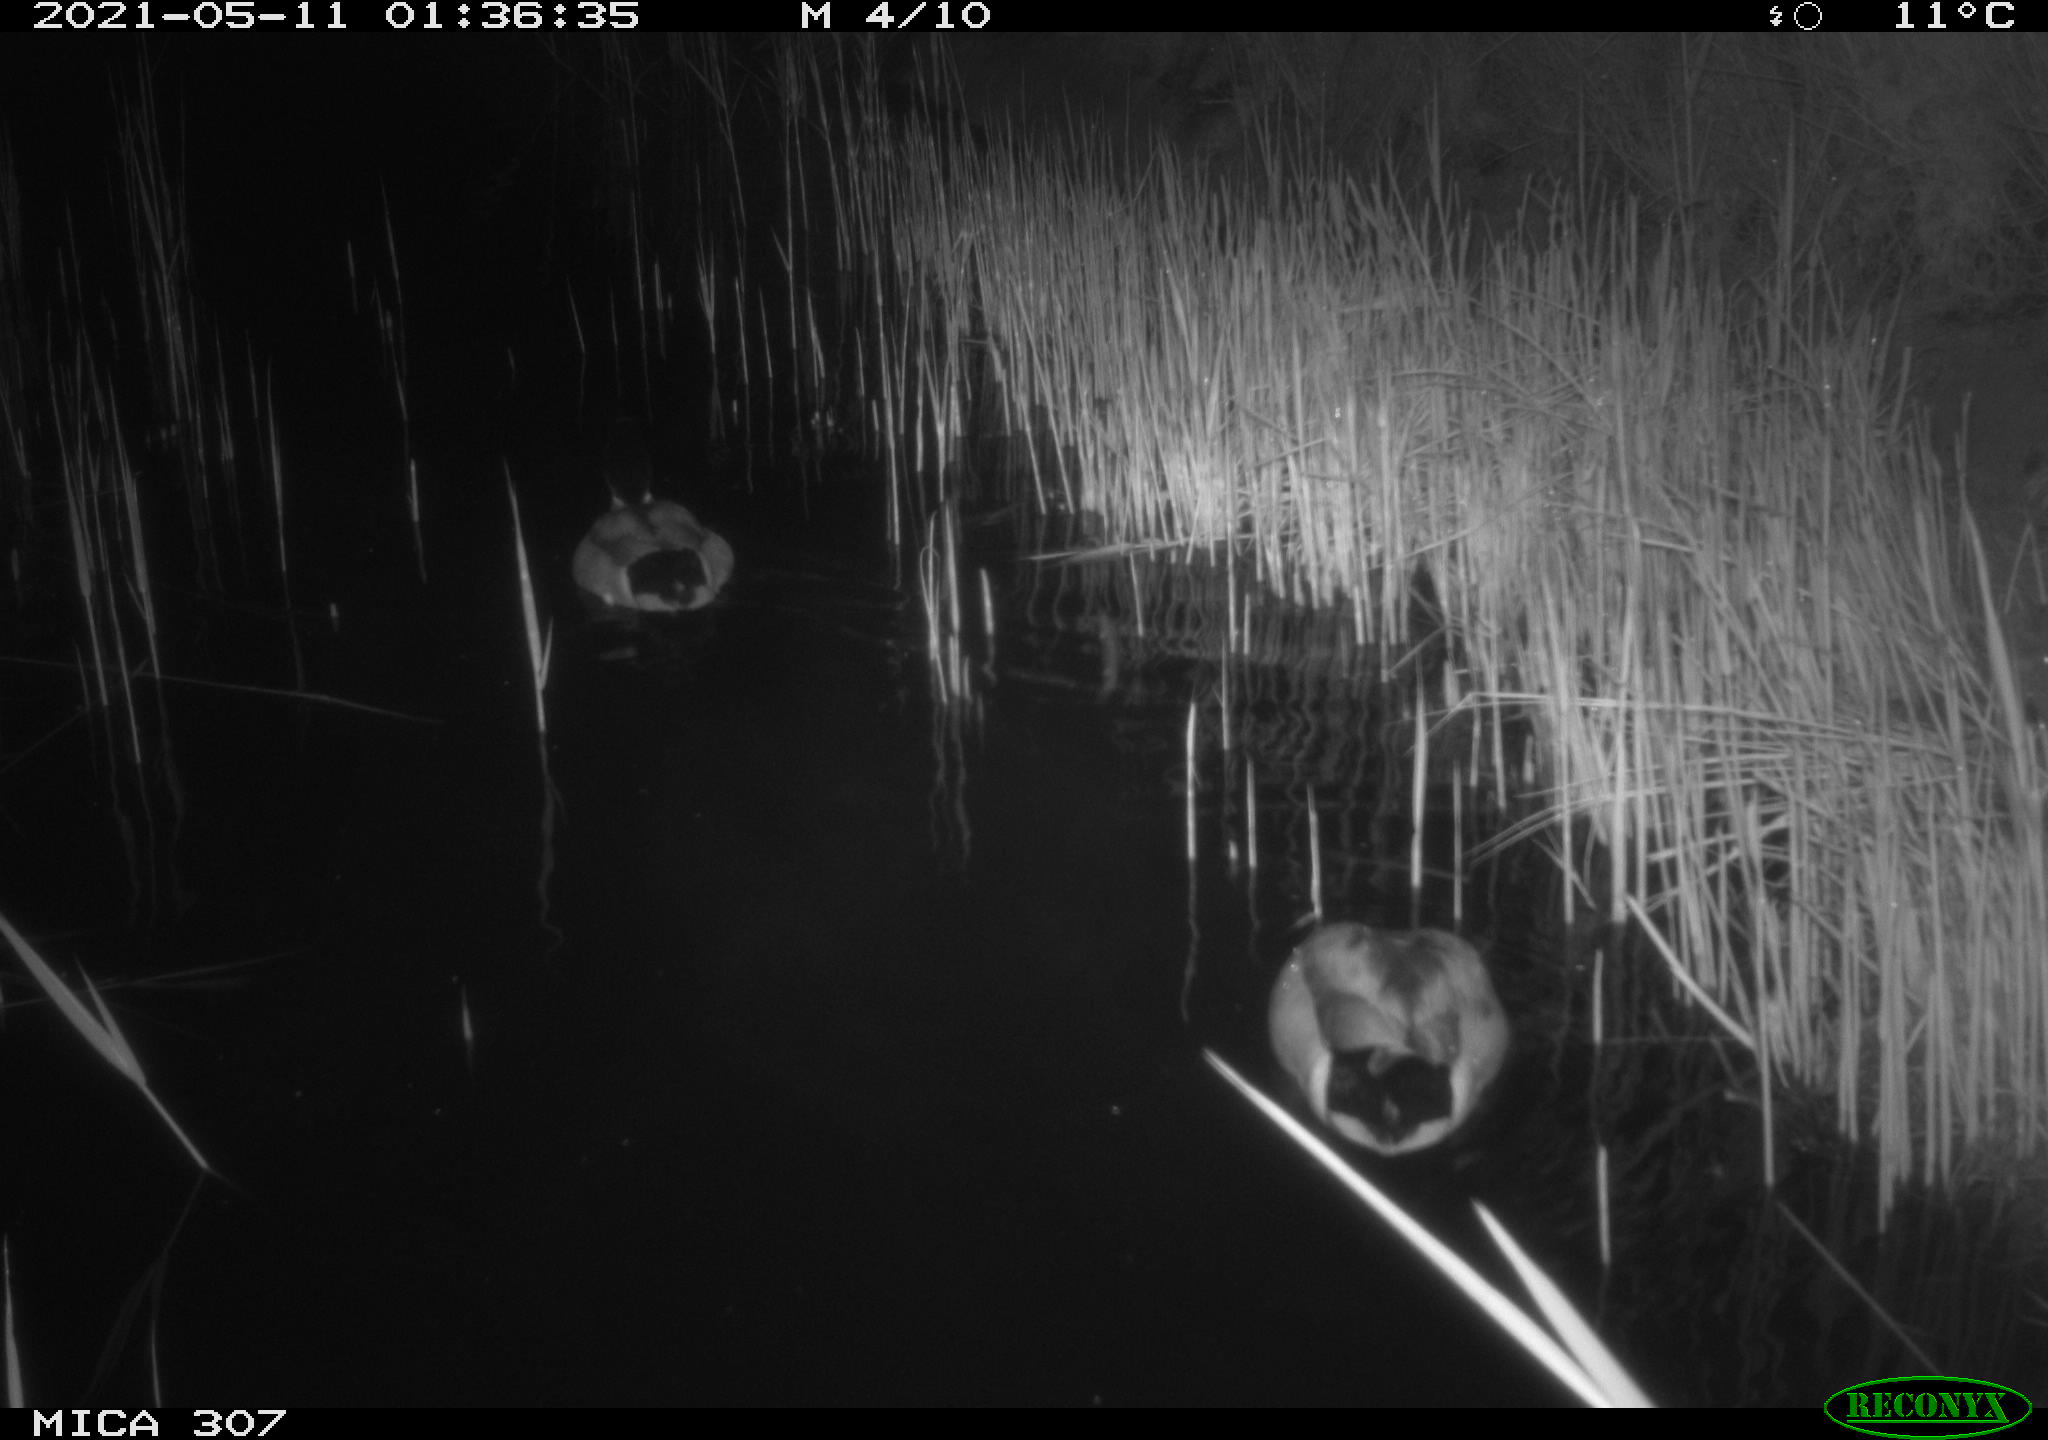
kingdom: Animalia
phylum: Chordata
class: Aves
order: Anseriformes
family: Anatidae
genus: Anas
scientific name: Anas platyrhynchos
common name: Mallard
